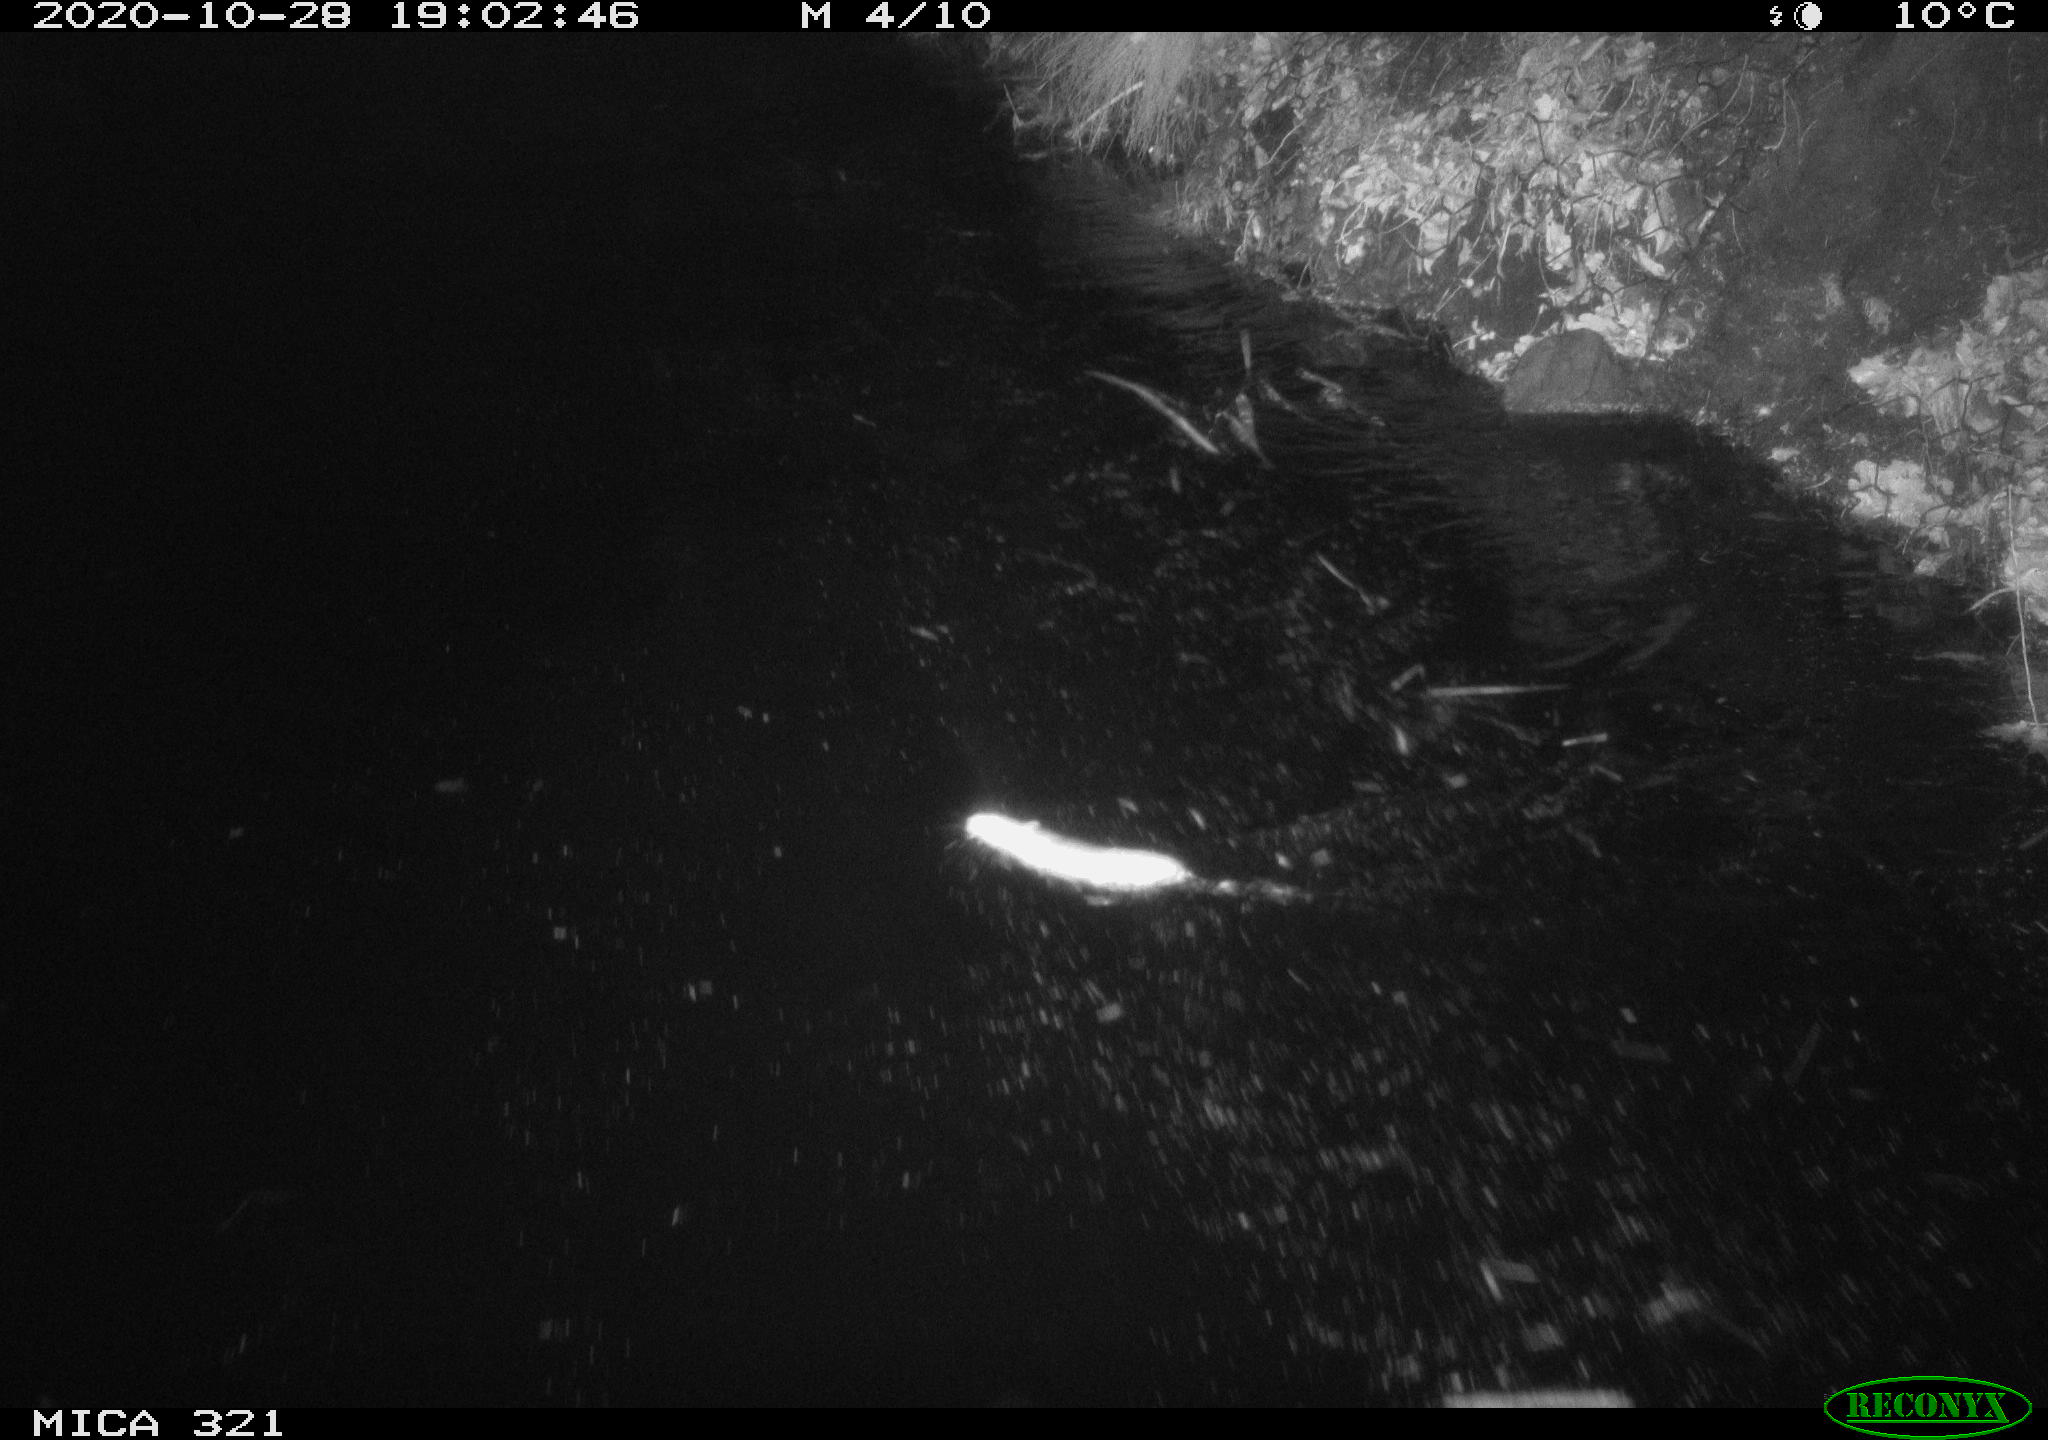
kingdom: Animalia
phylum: Chordata
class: Mammalia
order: Rodentia
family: Muridae
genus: Rattus
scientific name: Rattus norvegicus
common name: Brown rat
